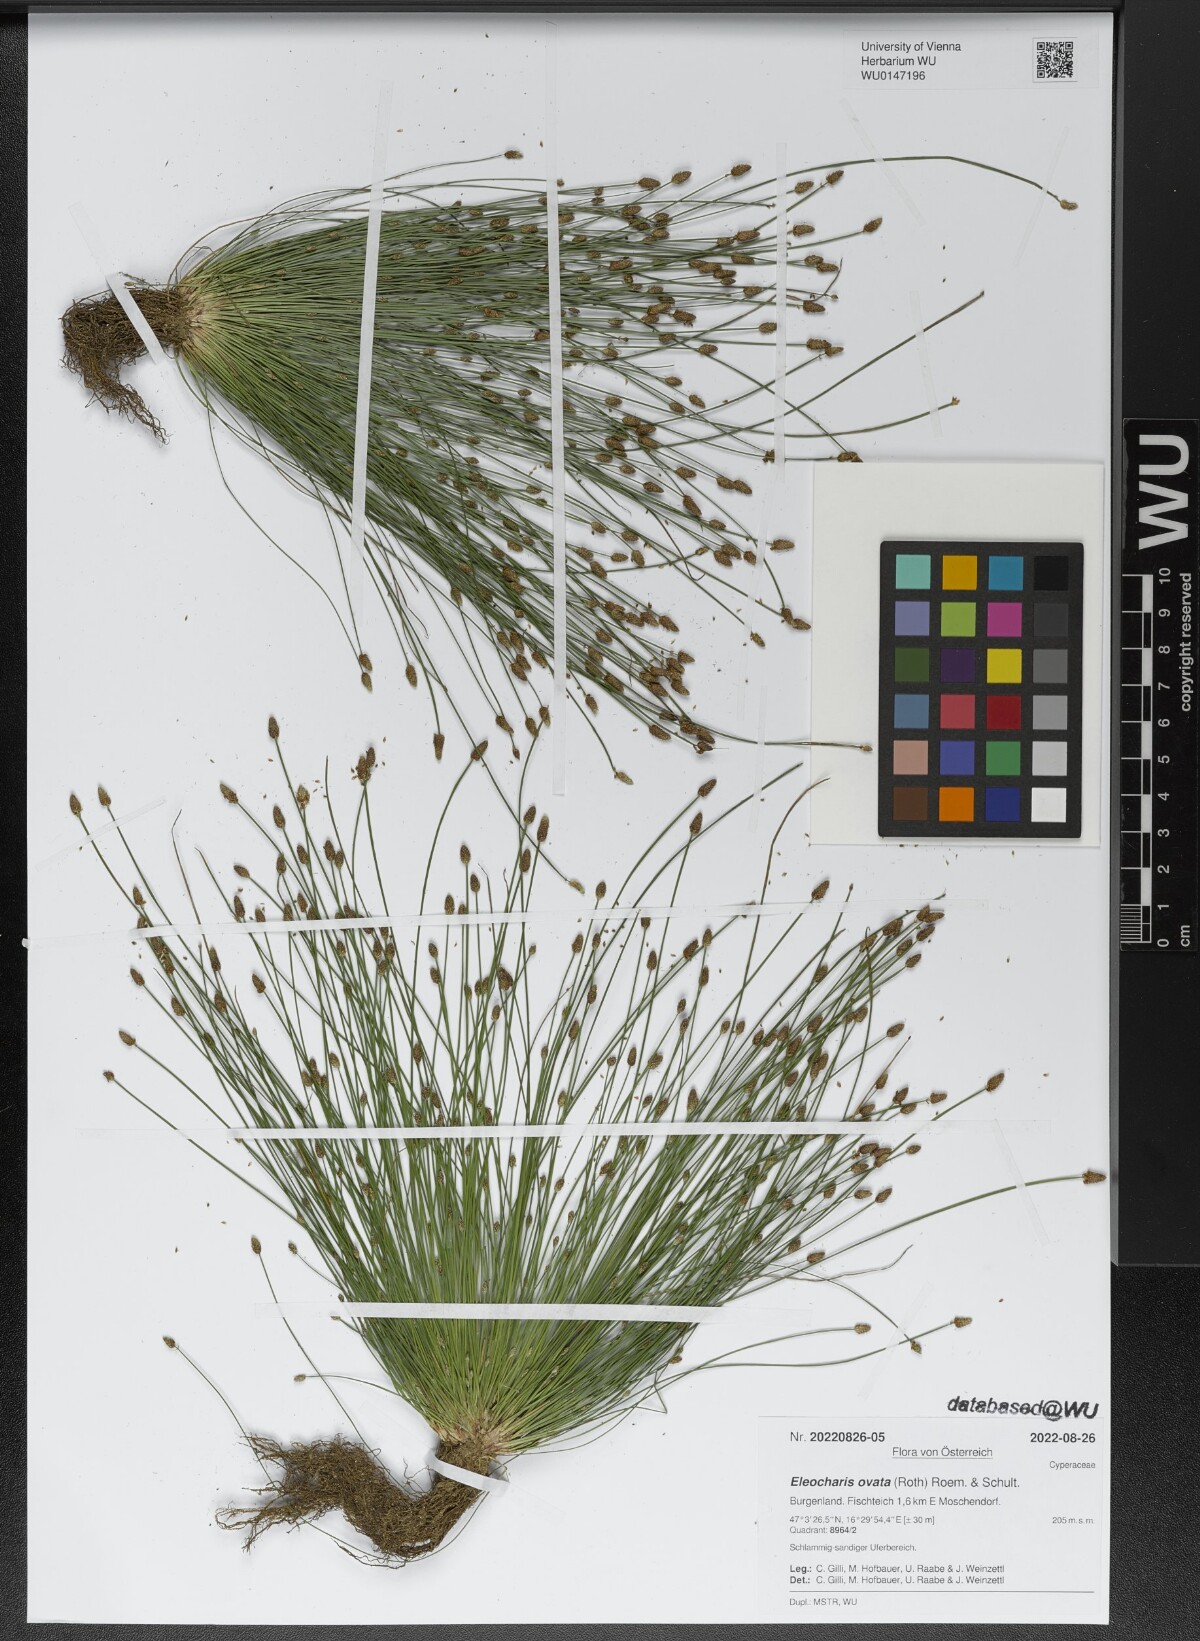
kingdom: Plantae
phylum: Tracheophyta
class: Liliopsida
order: Poales
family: Cyperaceae
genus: Eleocharis
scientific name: Eleocharis ovata
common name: Oval spike-rush
